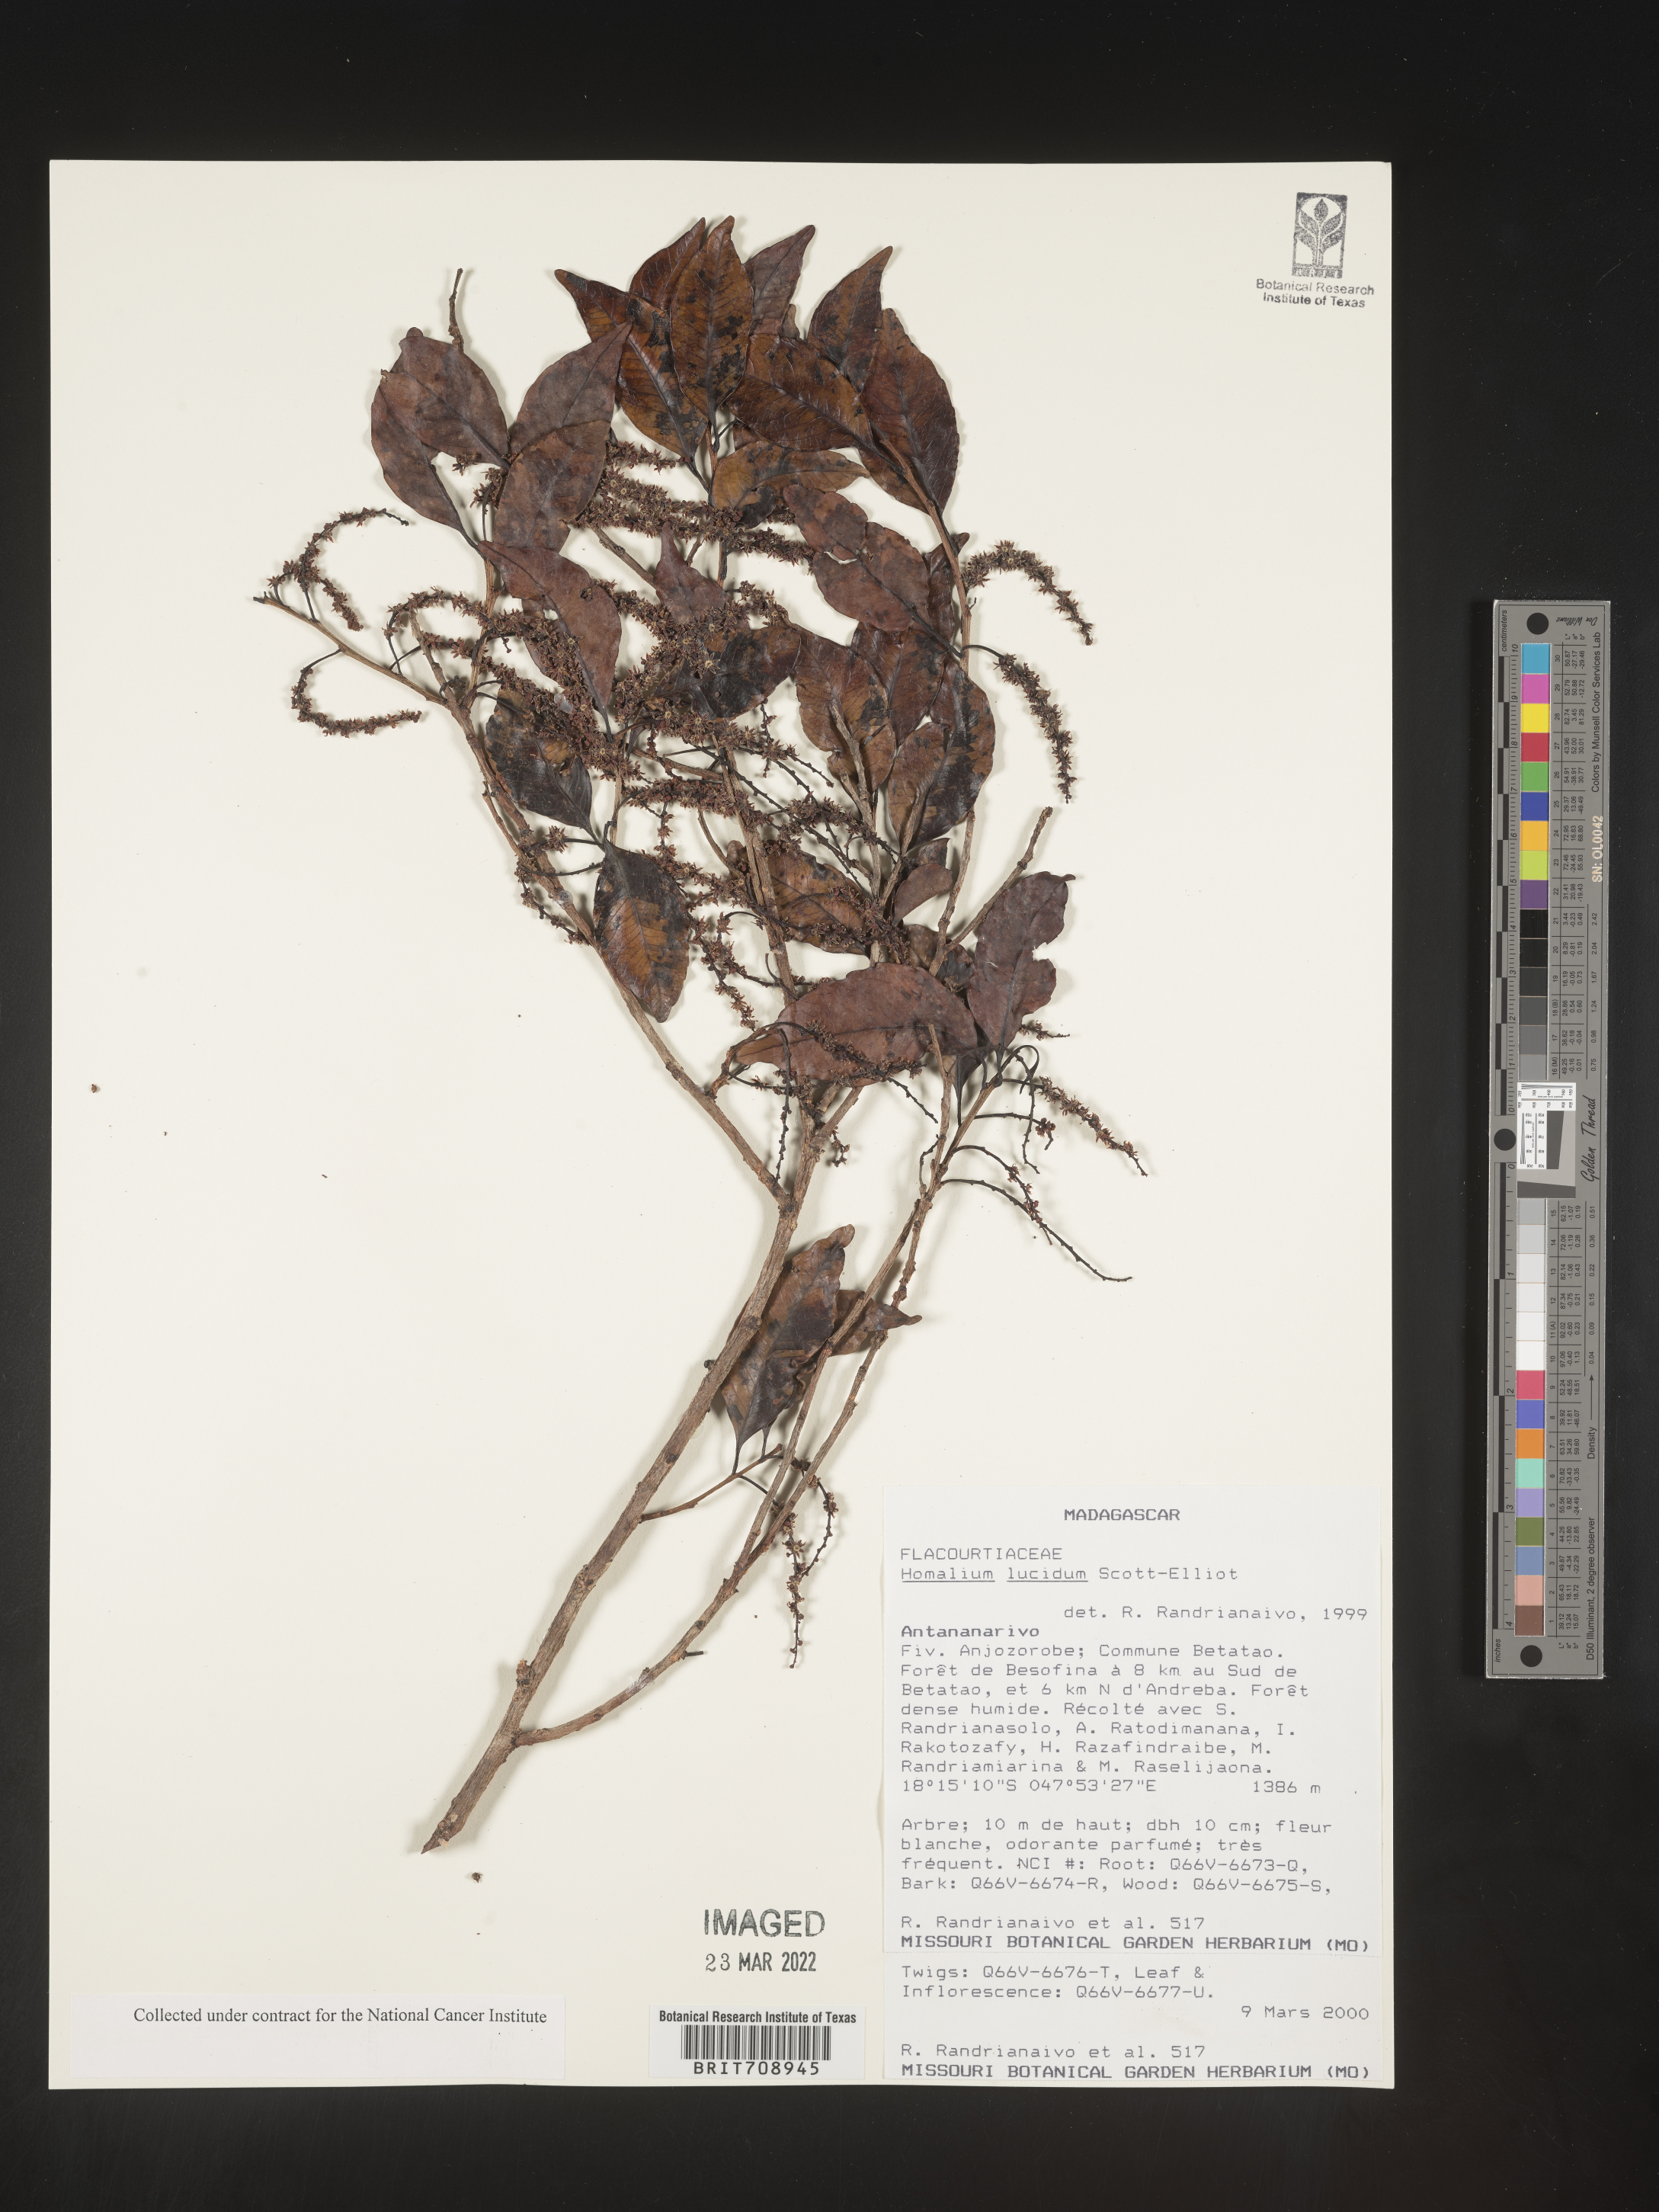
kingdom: Plantae
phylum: Tracheophyta
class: Magnoliopsida
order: Malpighiales
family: Salicaceae
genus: Homalium
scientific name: Homalium
